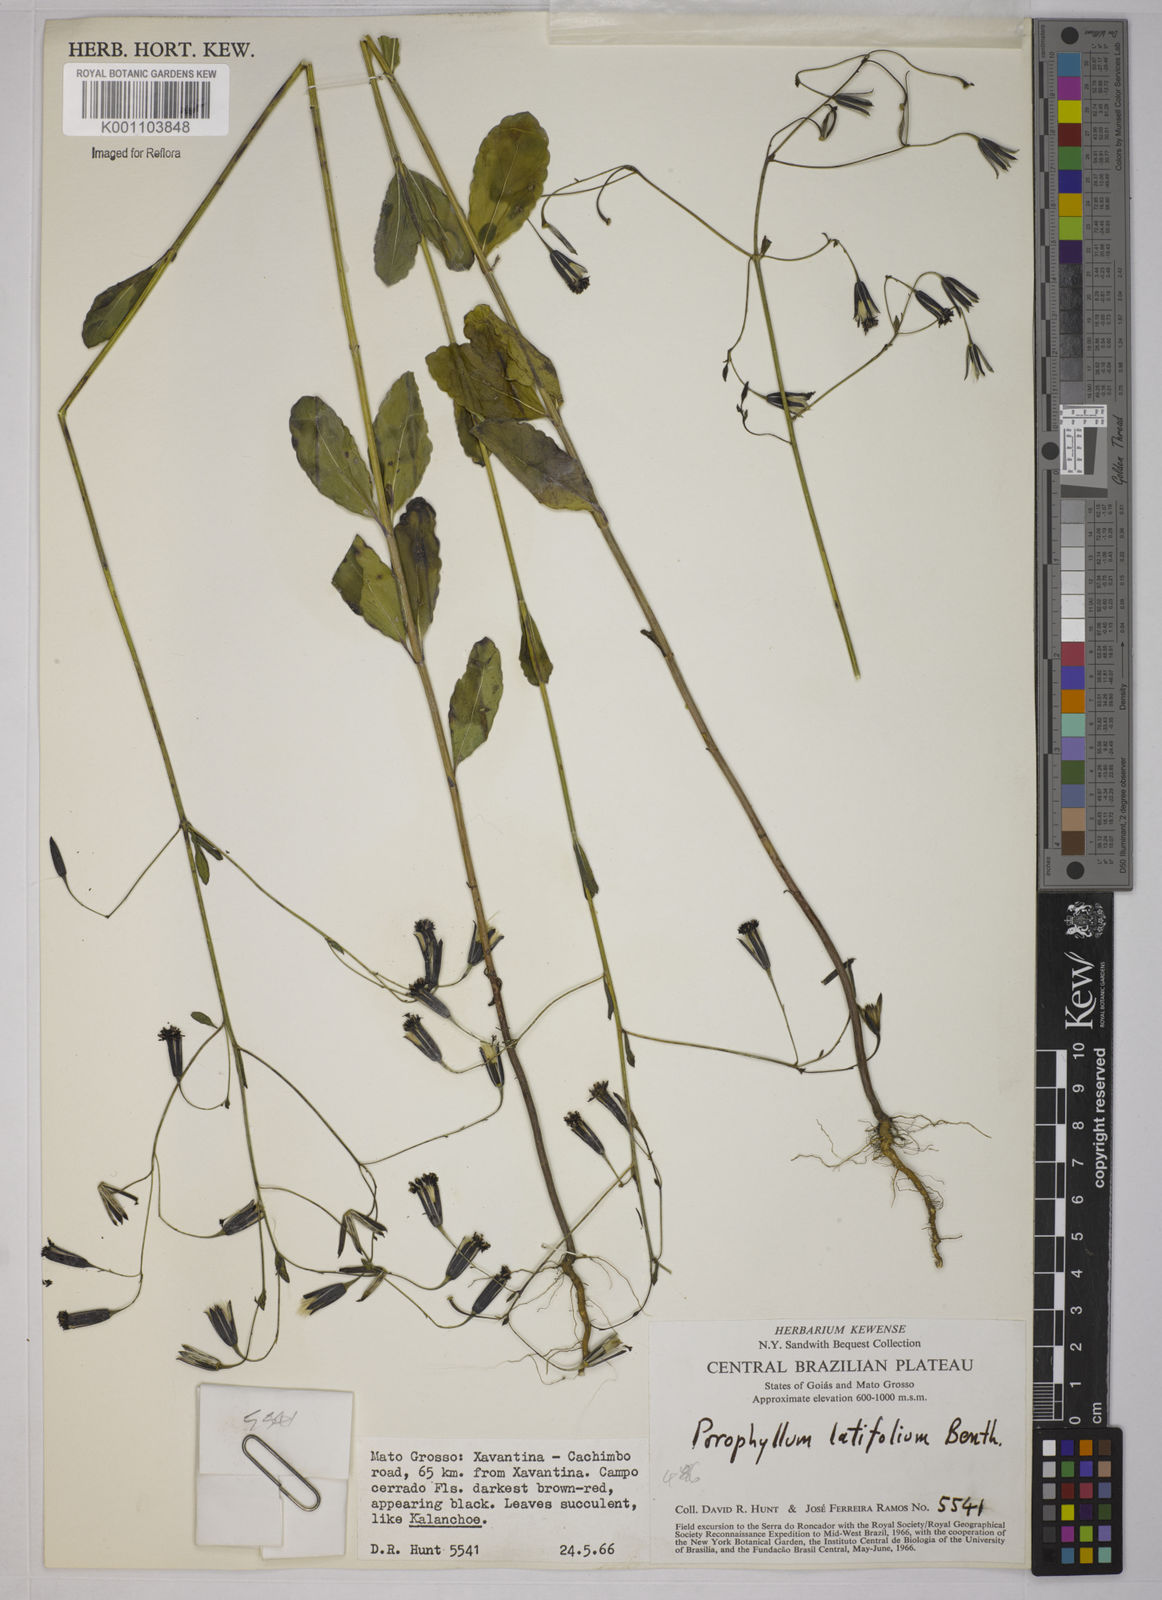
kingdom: Plantae
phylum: Tracheophyta
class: Magnoliopsida
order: Asterales
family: Asteraceae
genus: Porophyllum
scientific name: Porophyllum ruderale
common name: Yerba porosa
